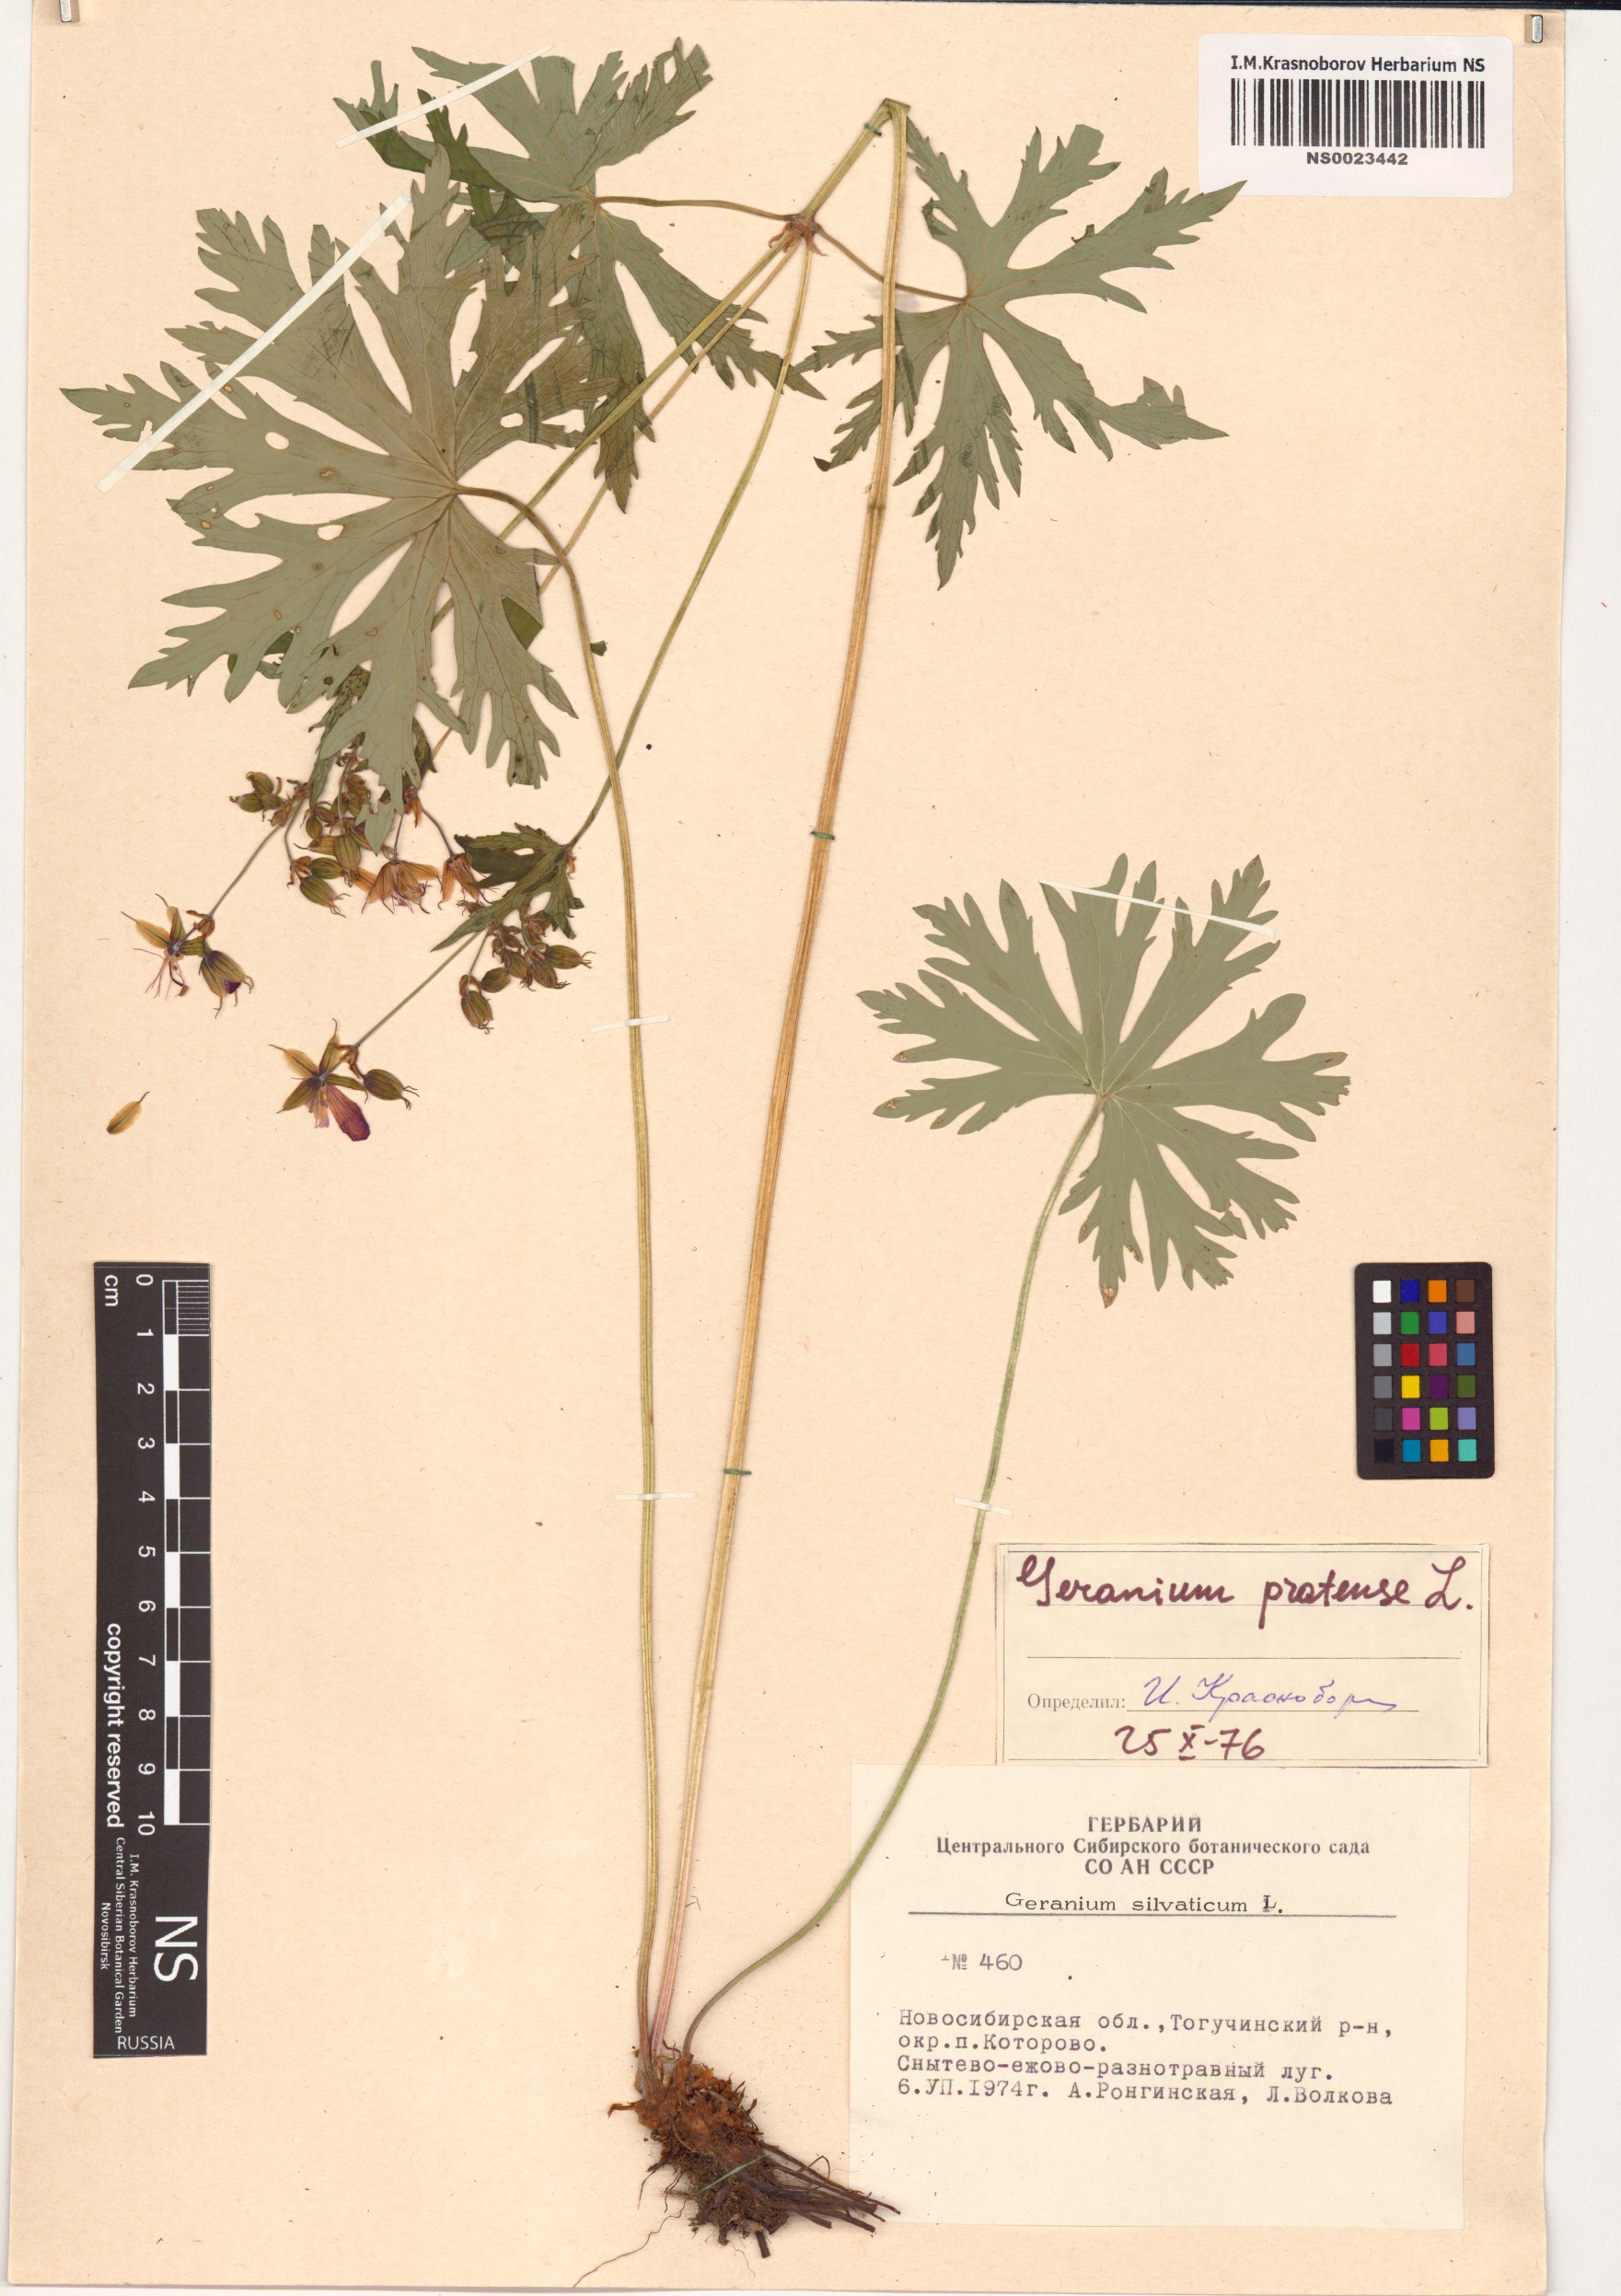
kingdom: Plantae
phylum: Tracheophyta
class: Magnoliopsida
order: Geraniales
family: Geraniaceae
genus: Geranium
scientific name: Geranium pratense
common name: Meadow crane's-bill
